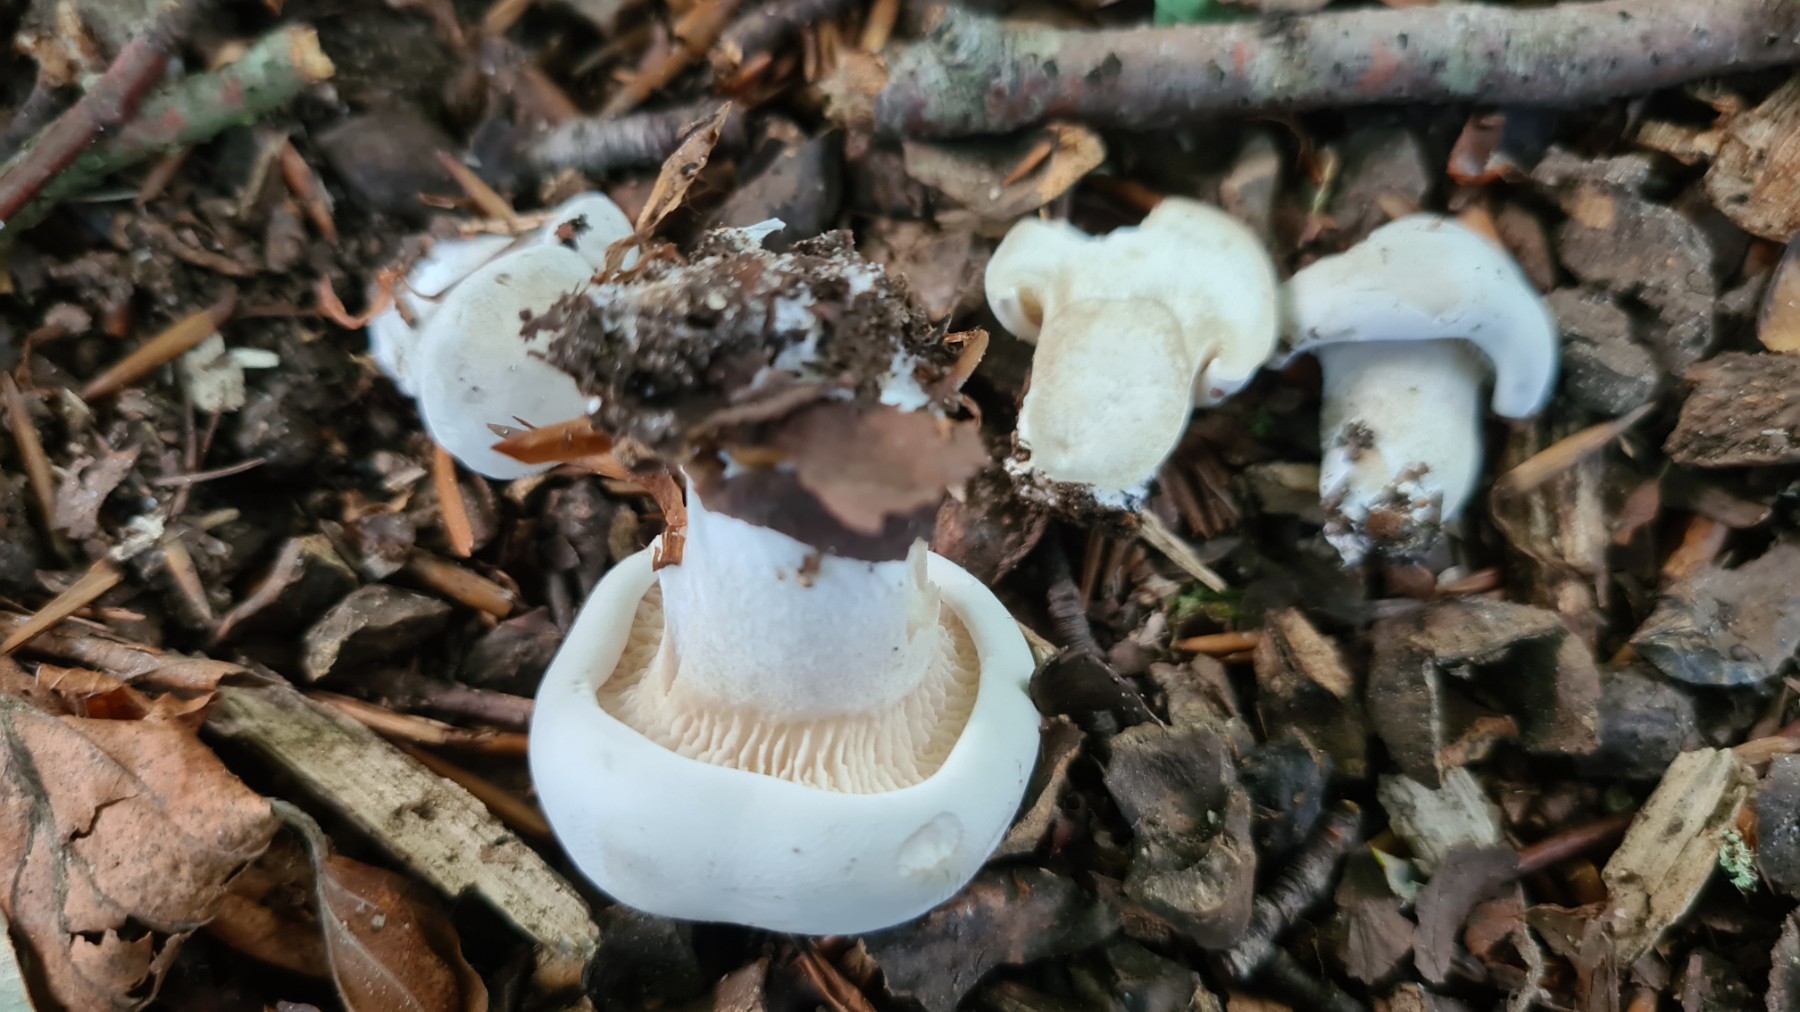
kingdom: Fungi
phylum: Basidiomycota
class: Agaricomycetes
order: Agaricales
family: Entolomataceae
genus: Clitopilus
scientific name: Clitopilus prunulus
